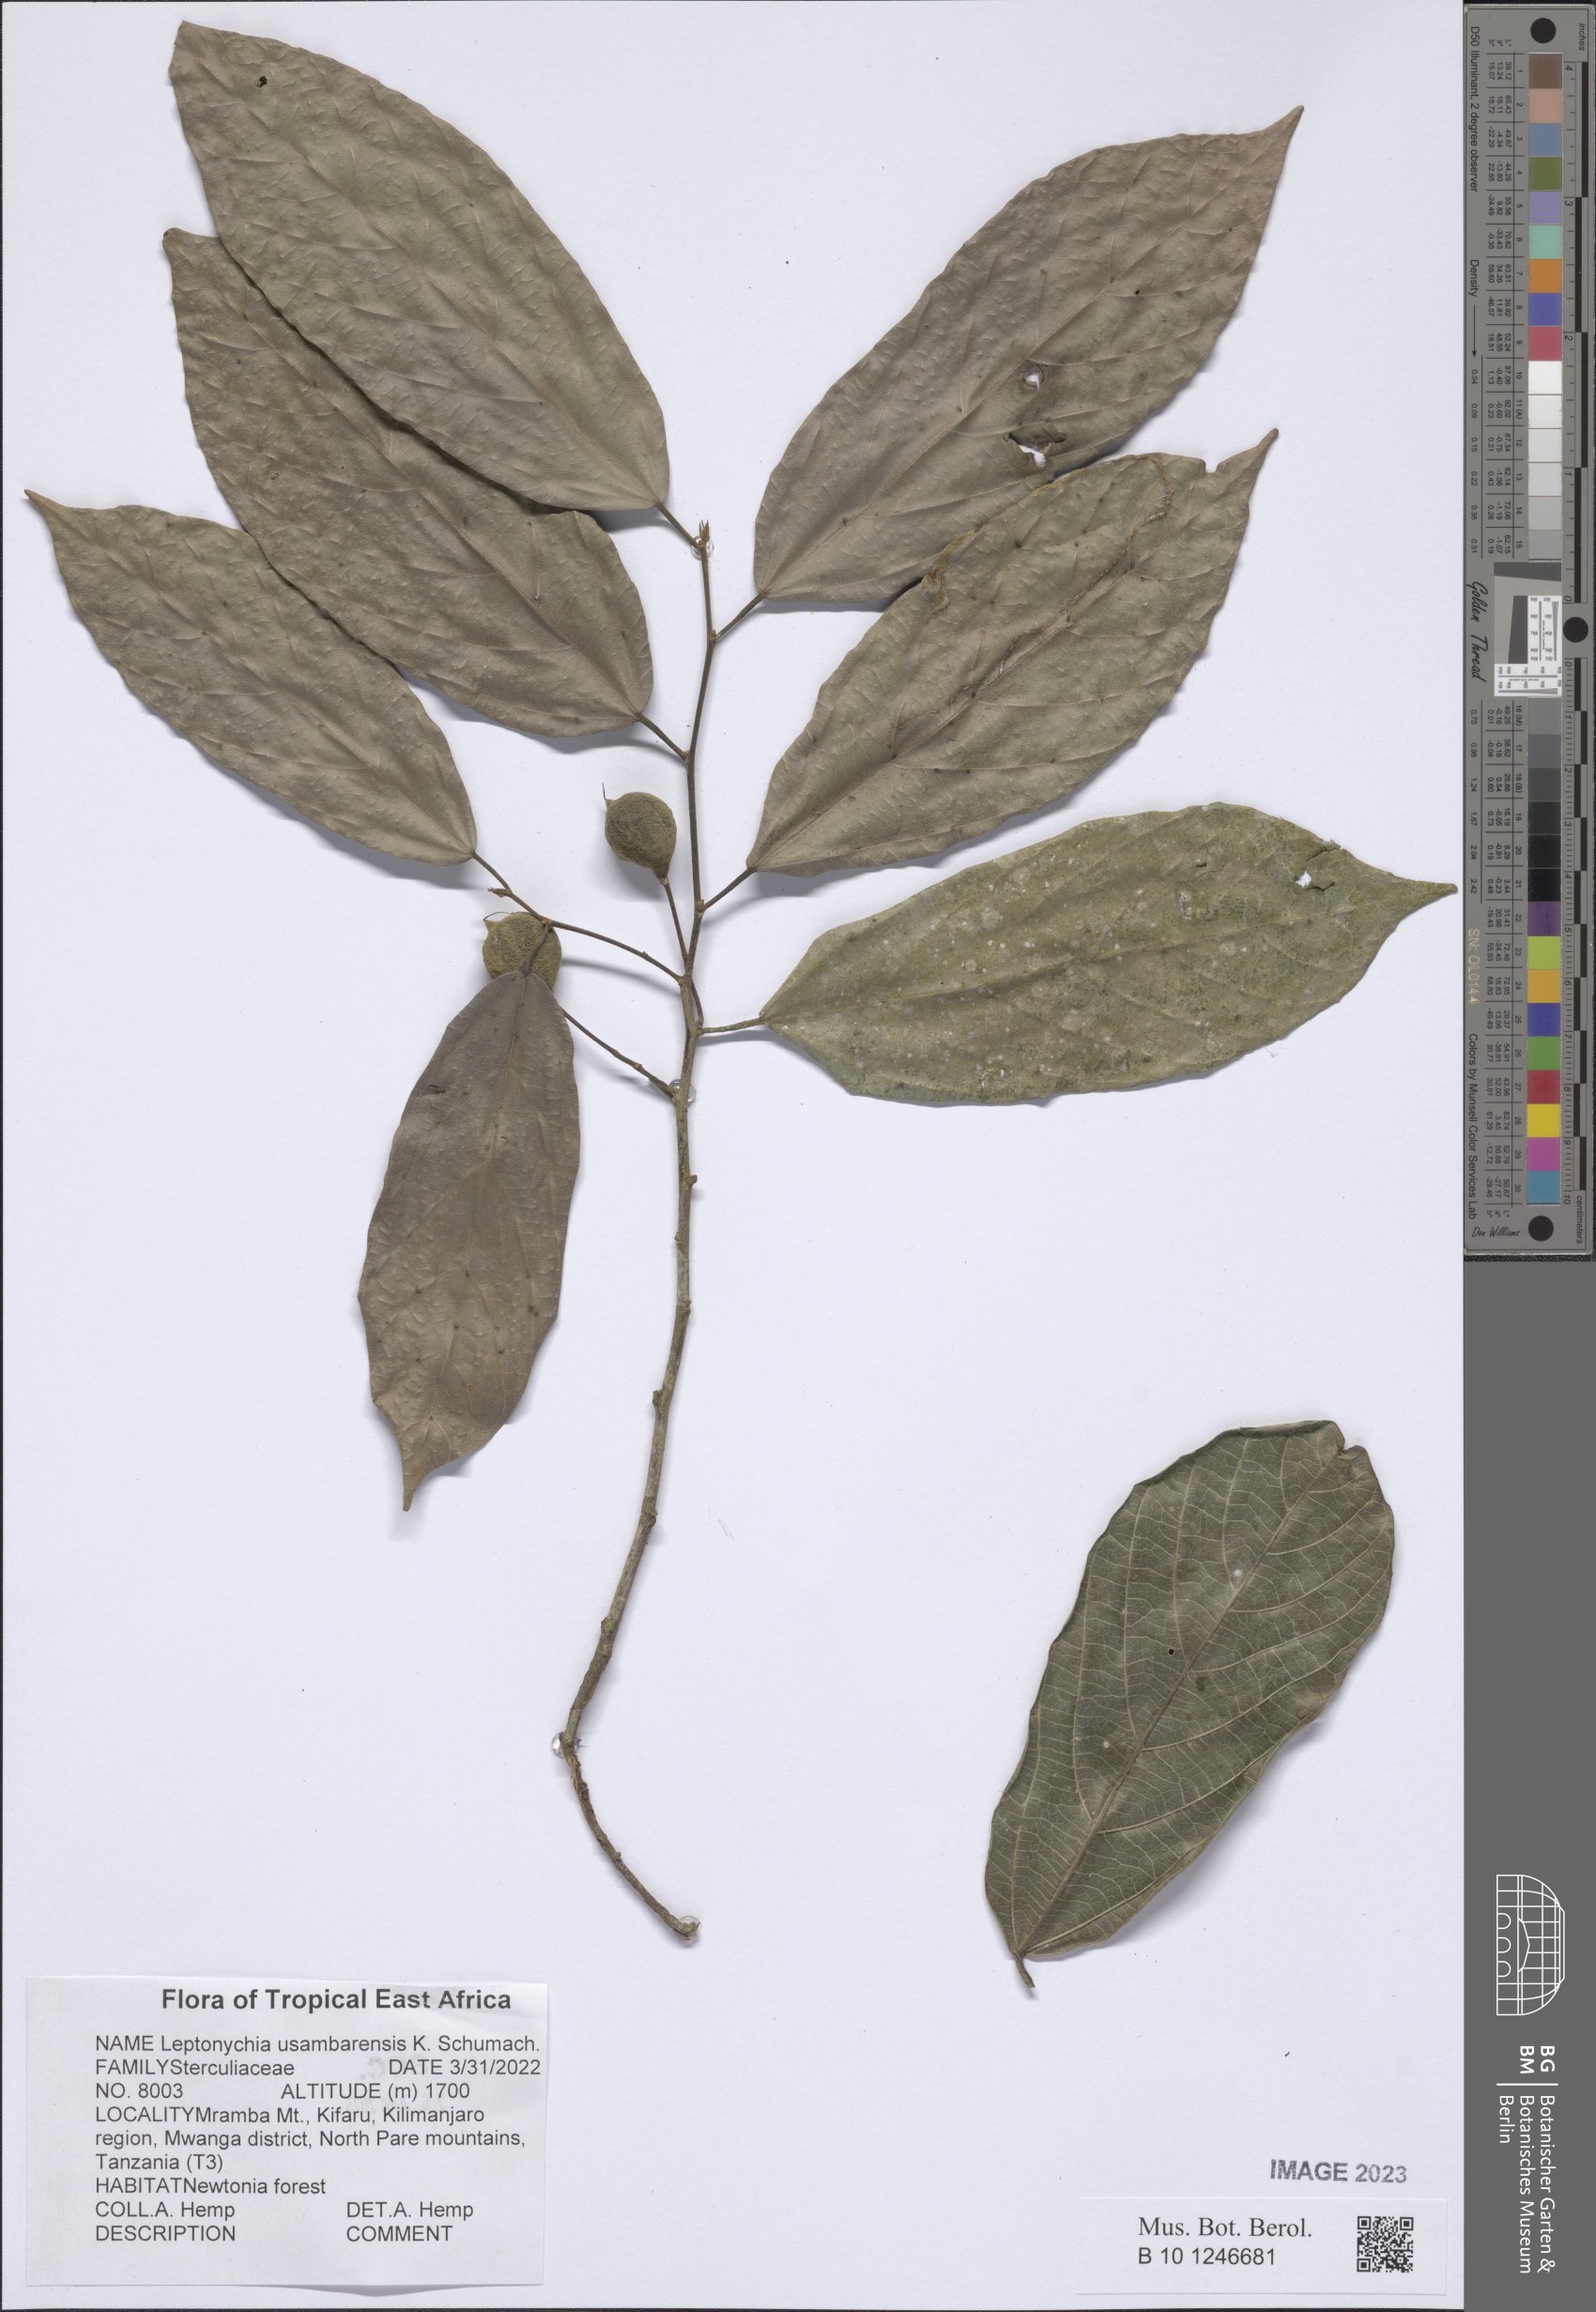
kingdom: Plantae
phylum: Tracheophyta
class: Magnoliopsida
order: Malvales
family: Malvaceae
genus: Leptonychia
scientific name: Leptonychia usambarensis
